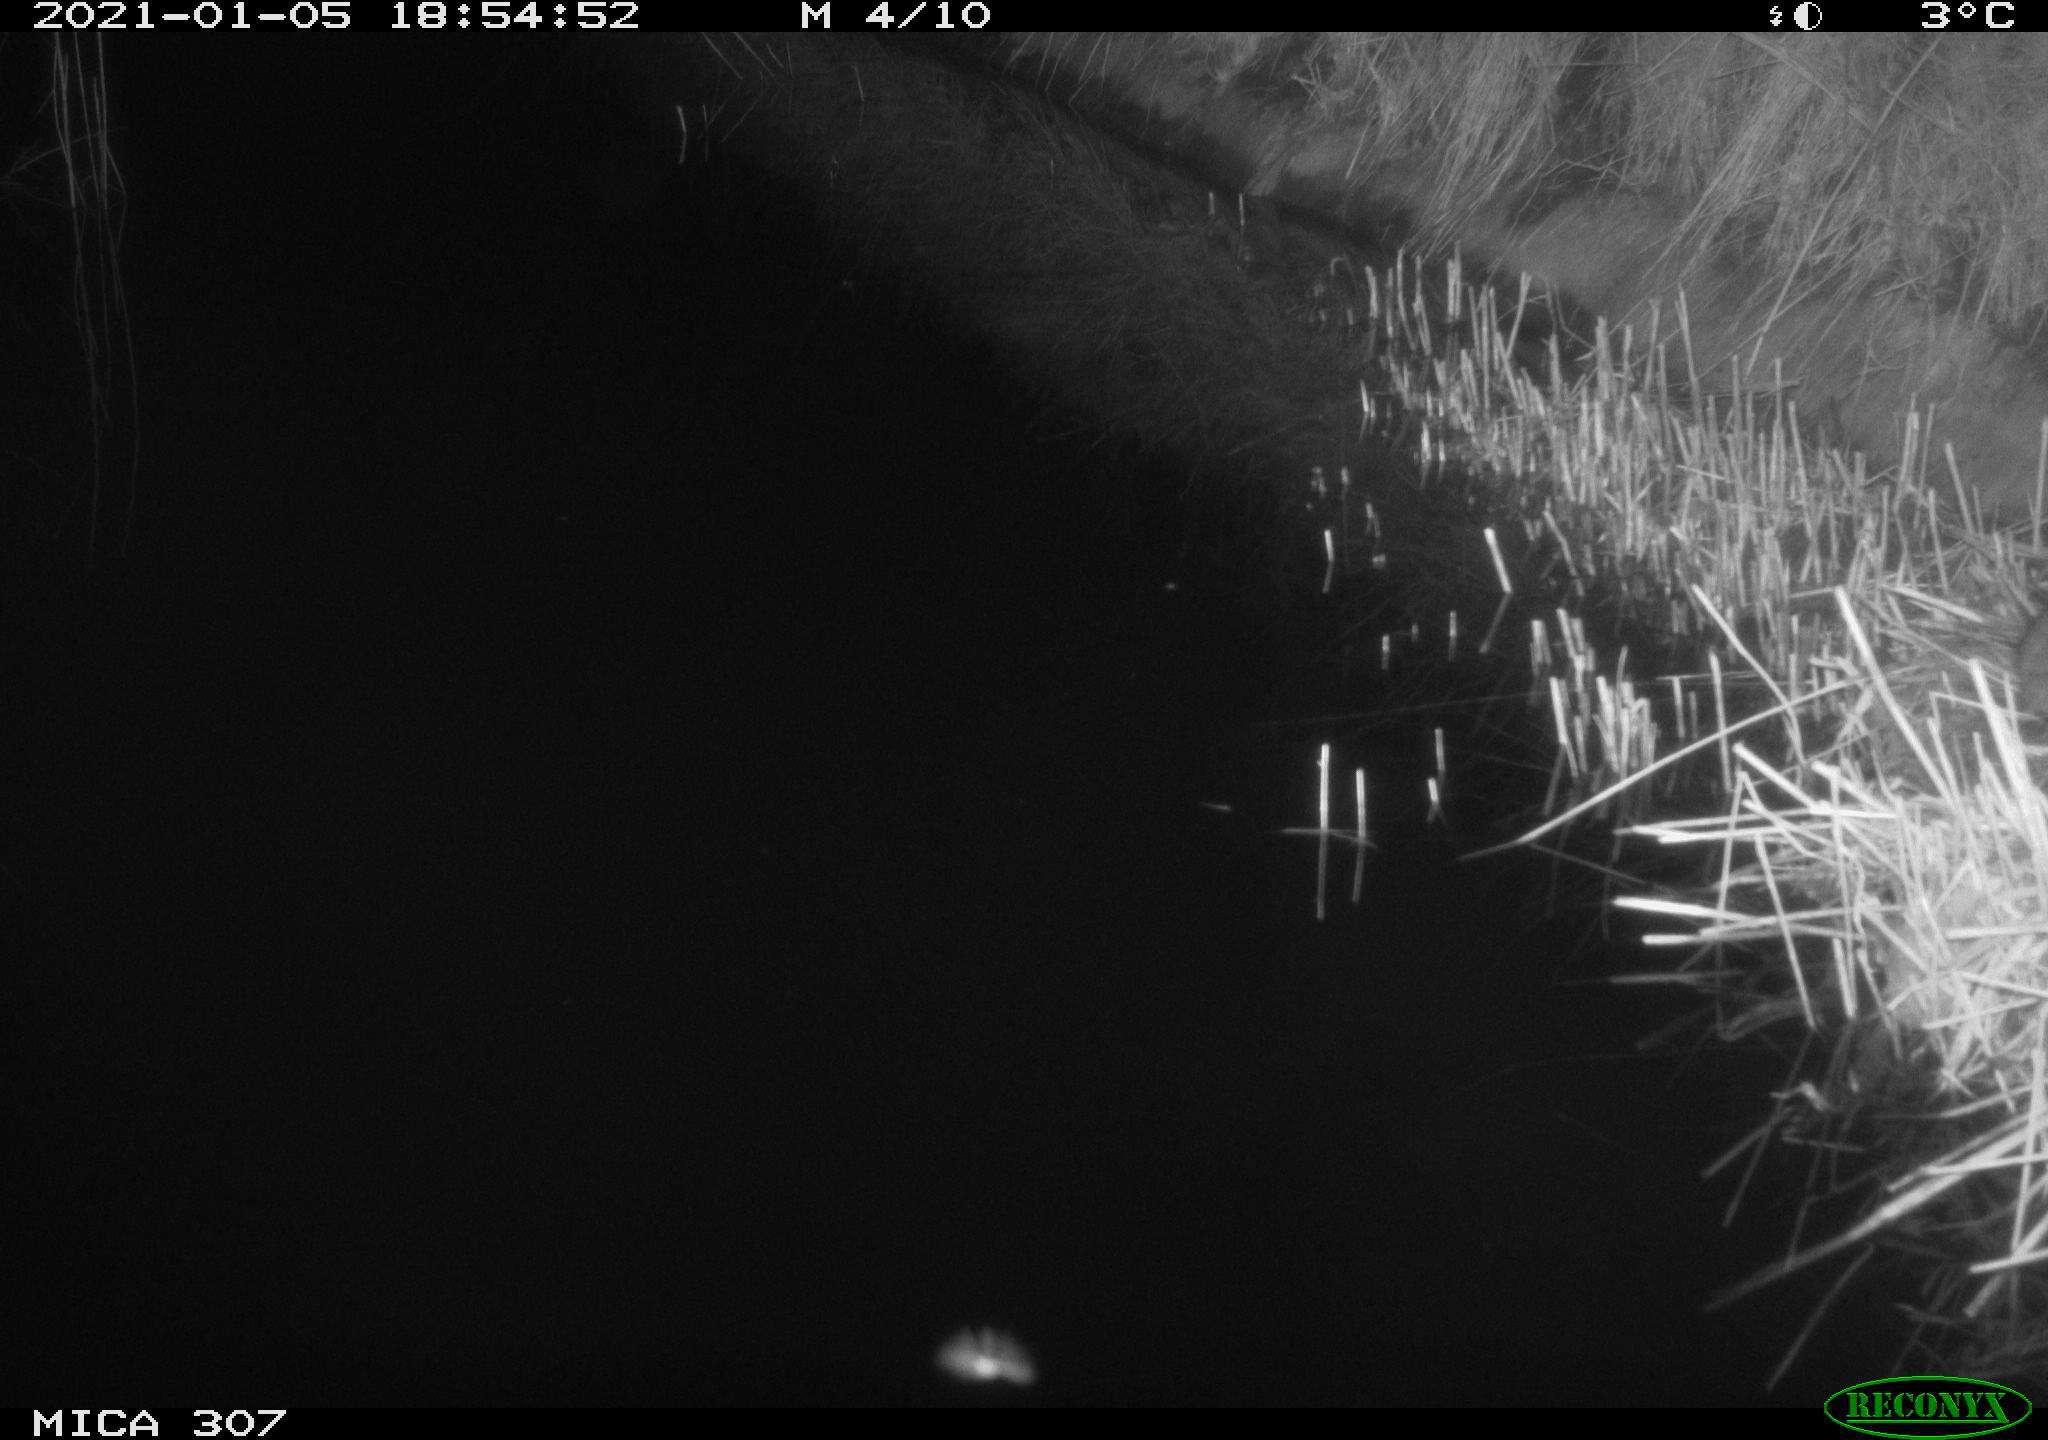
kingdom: Animalia
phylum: Chordata
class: Mammalia
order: Rodentia
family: Muridae
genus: Rattus
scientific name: Rattus norvegicus
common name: Brown rat
